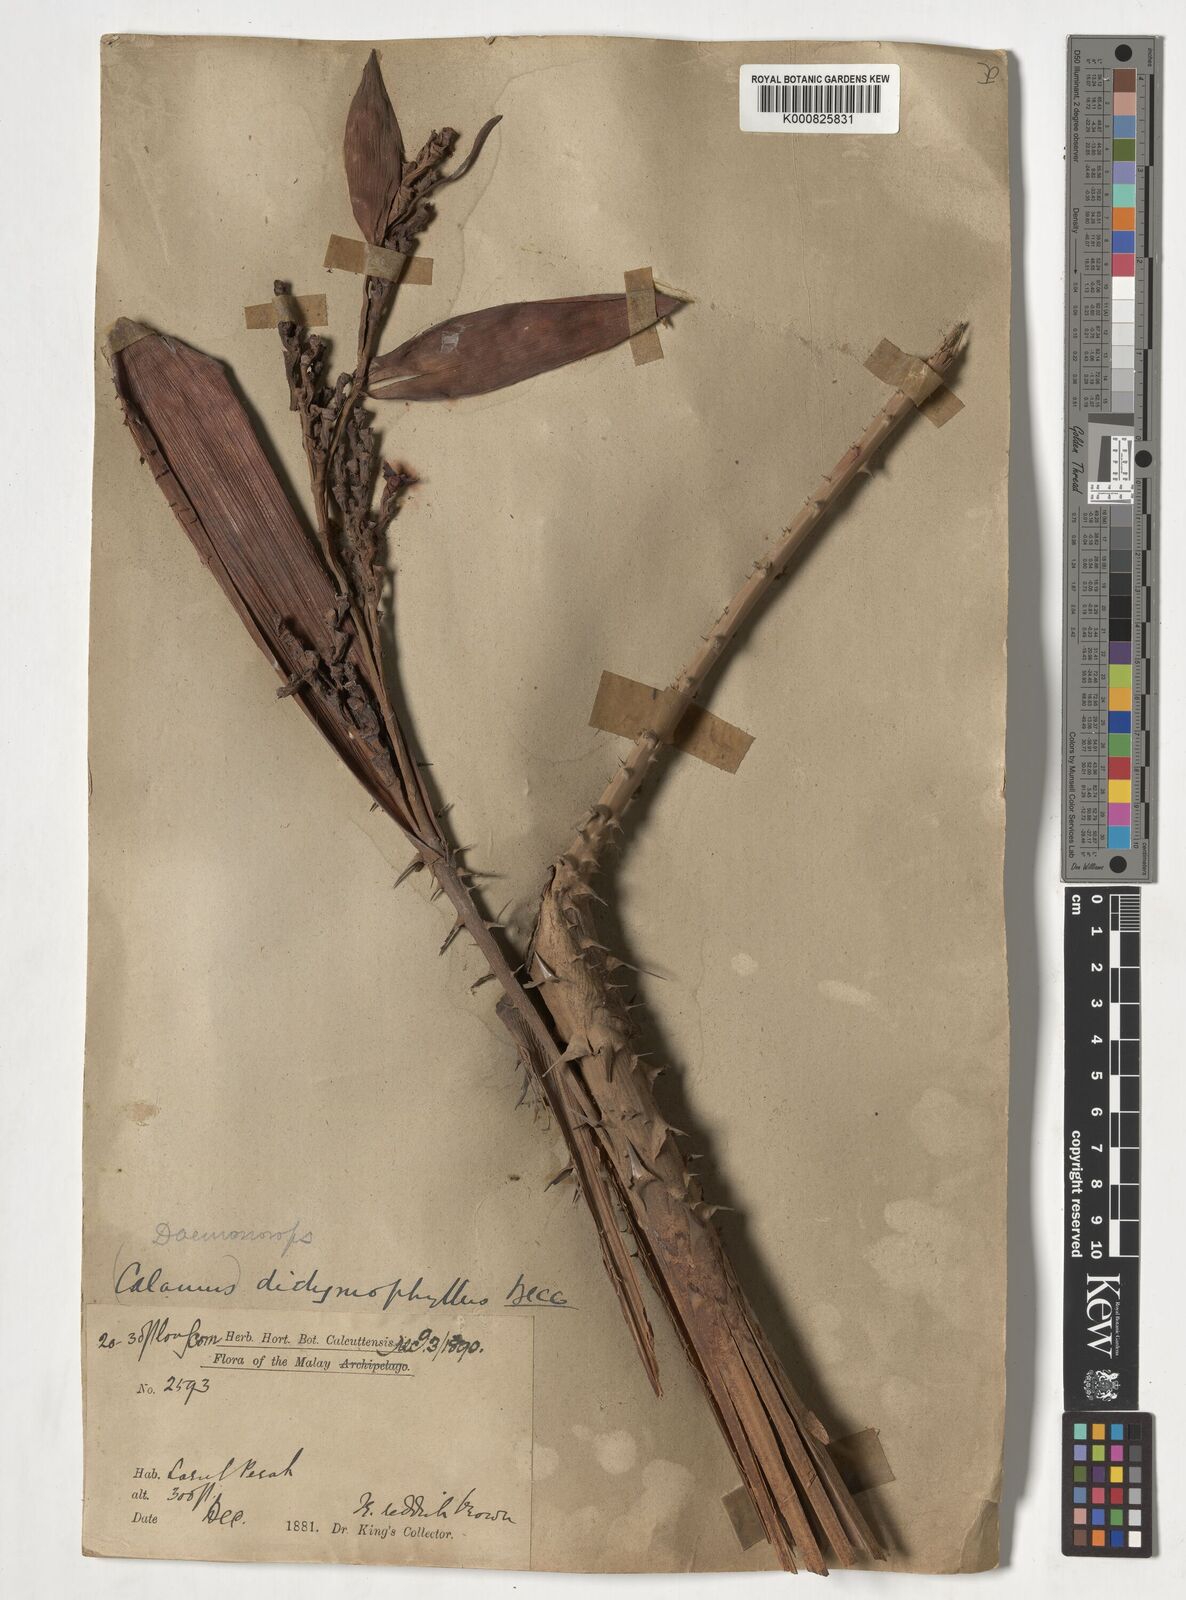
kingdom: Plantae
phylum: Tracheophyta
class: Liliopsida
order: Arecales
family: Arecaceae
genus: Calamus
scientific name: Calamus gracilipes
